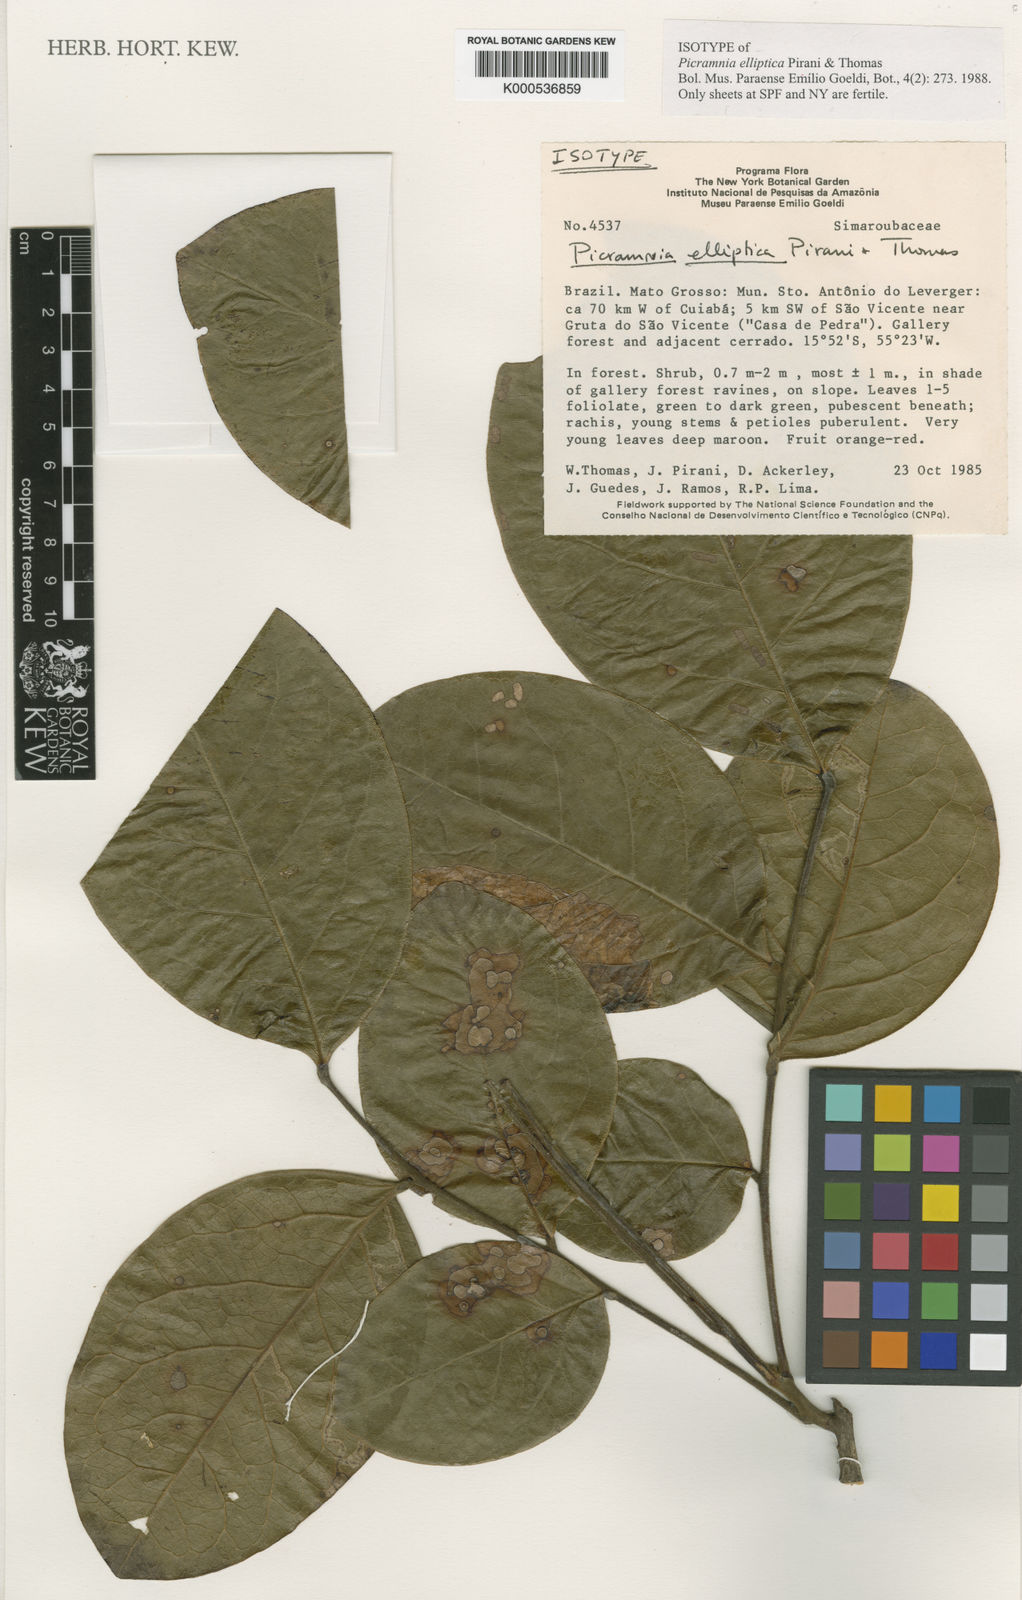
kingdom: Plantae
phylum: Tracheophyta
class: Magnoliopsida
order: Picramniales
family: Picramniaceae
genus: Picramnia
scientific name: Picramnia elliptica
